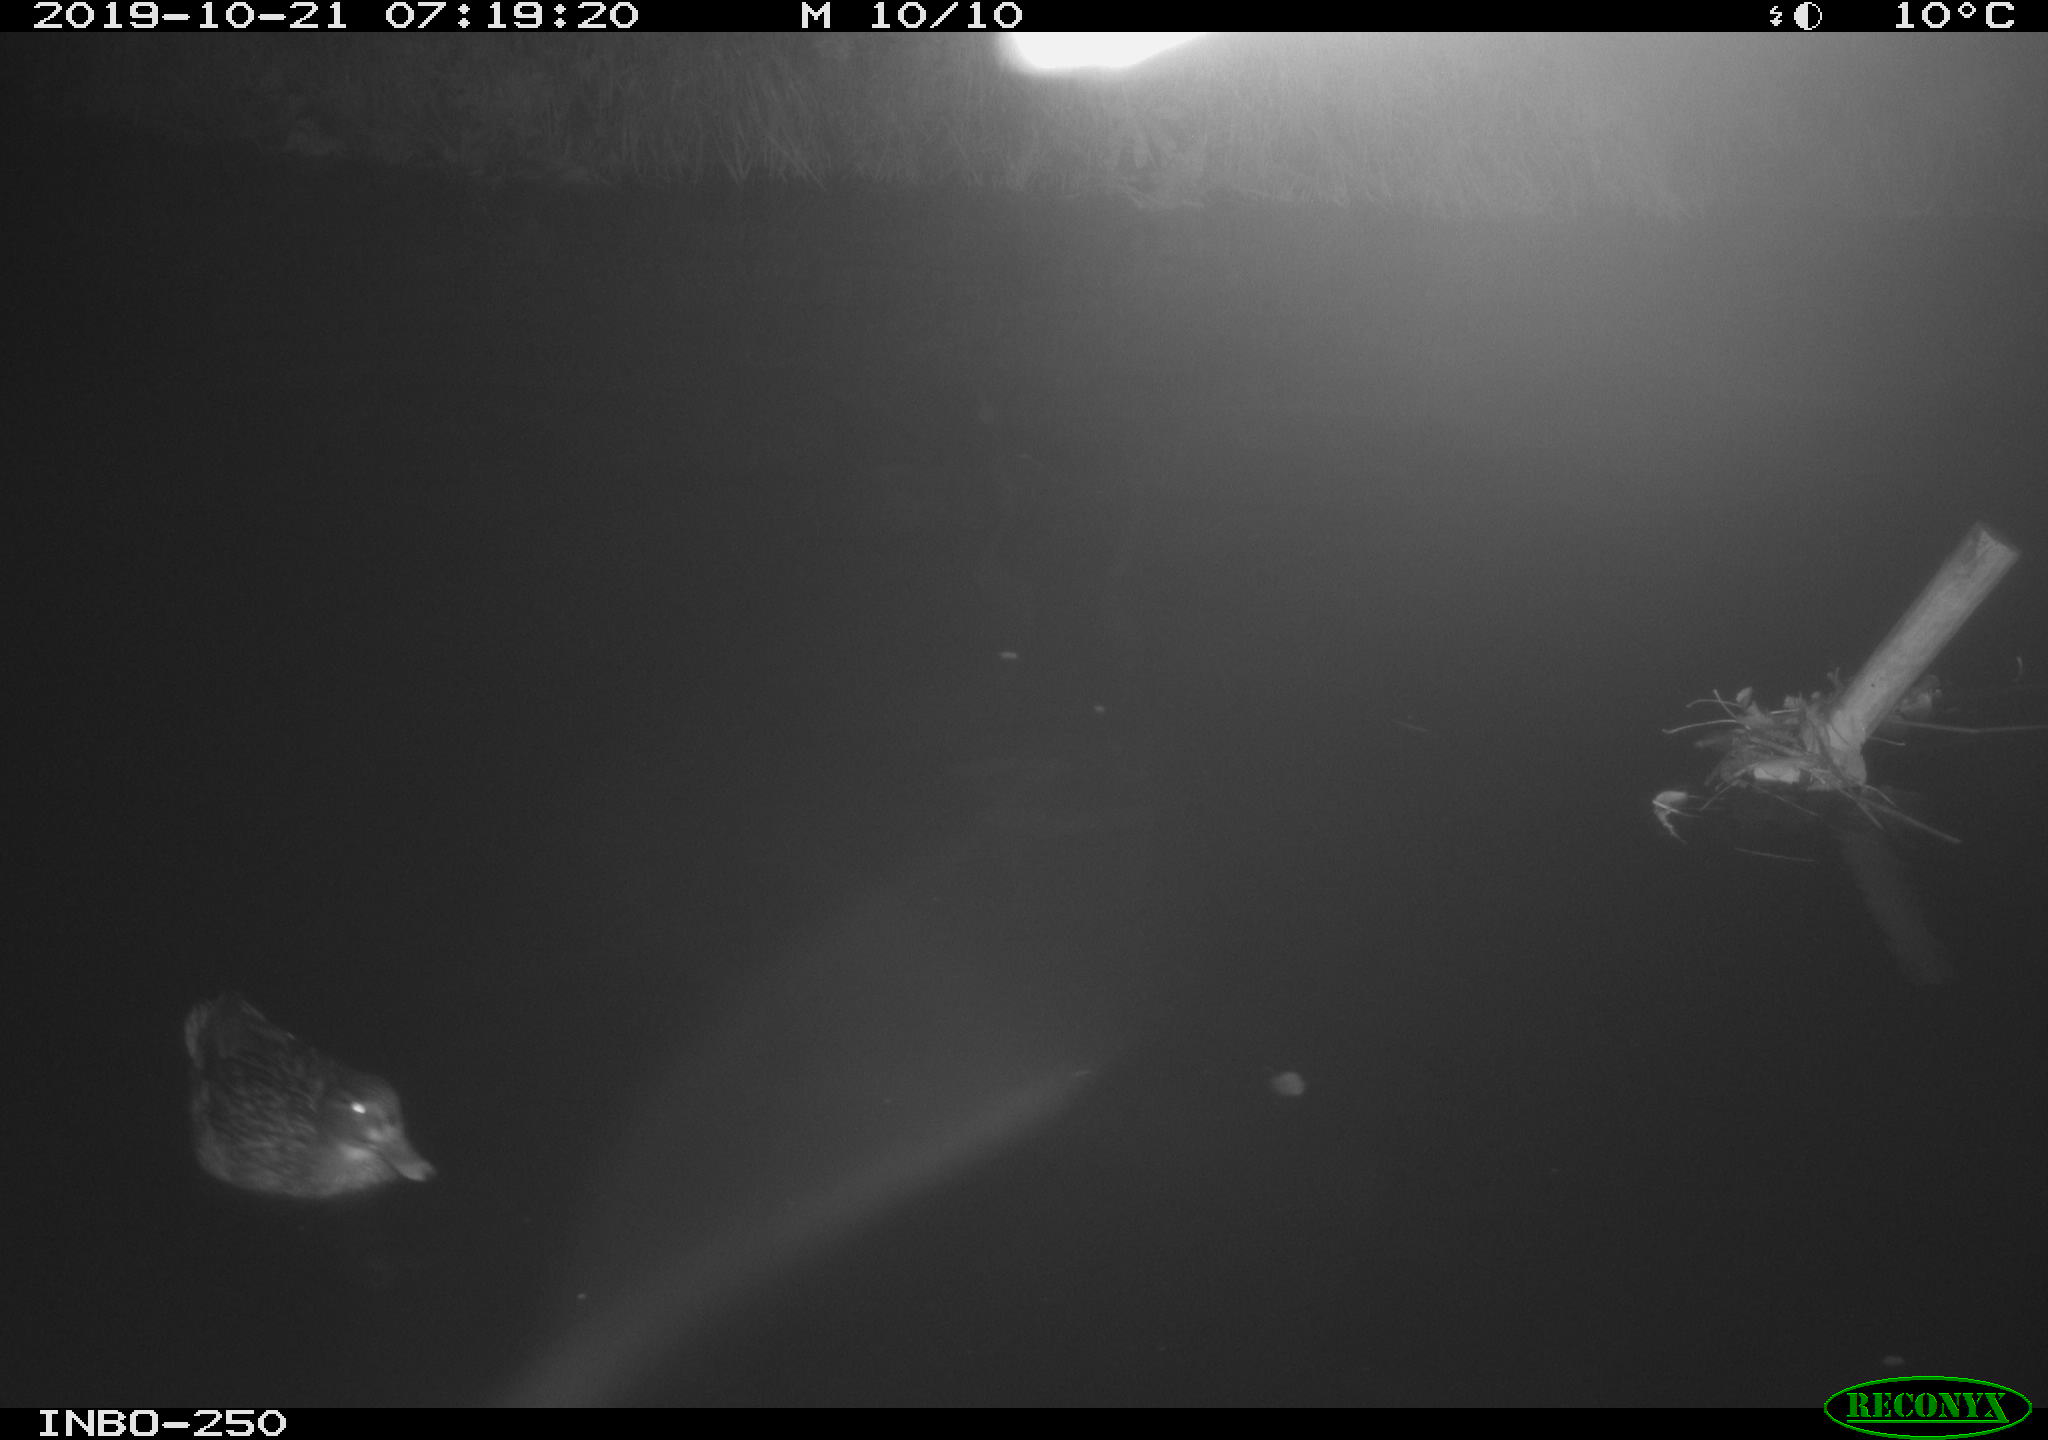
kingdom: Animalia
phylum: Chordata
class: Aves
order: Anseriformes
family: Anatidae
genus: Anas
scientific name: Anas platyrhynchos
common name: Mallard
